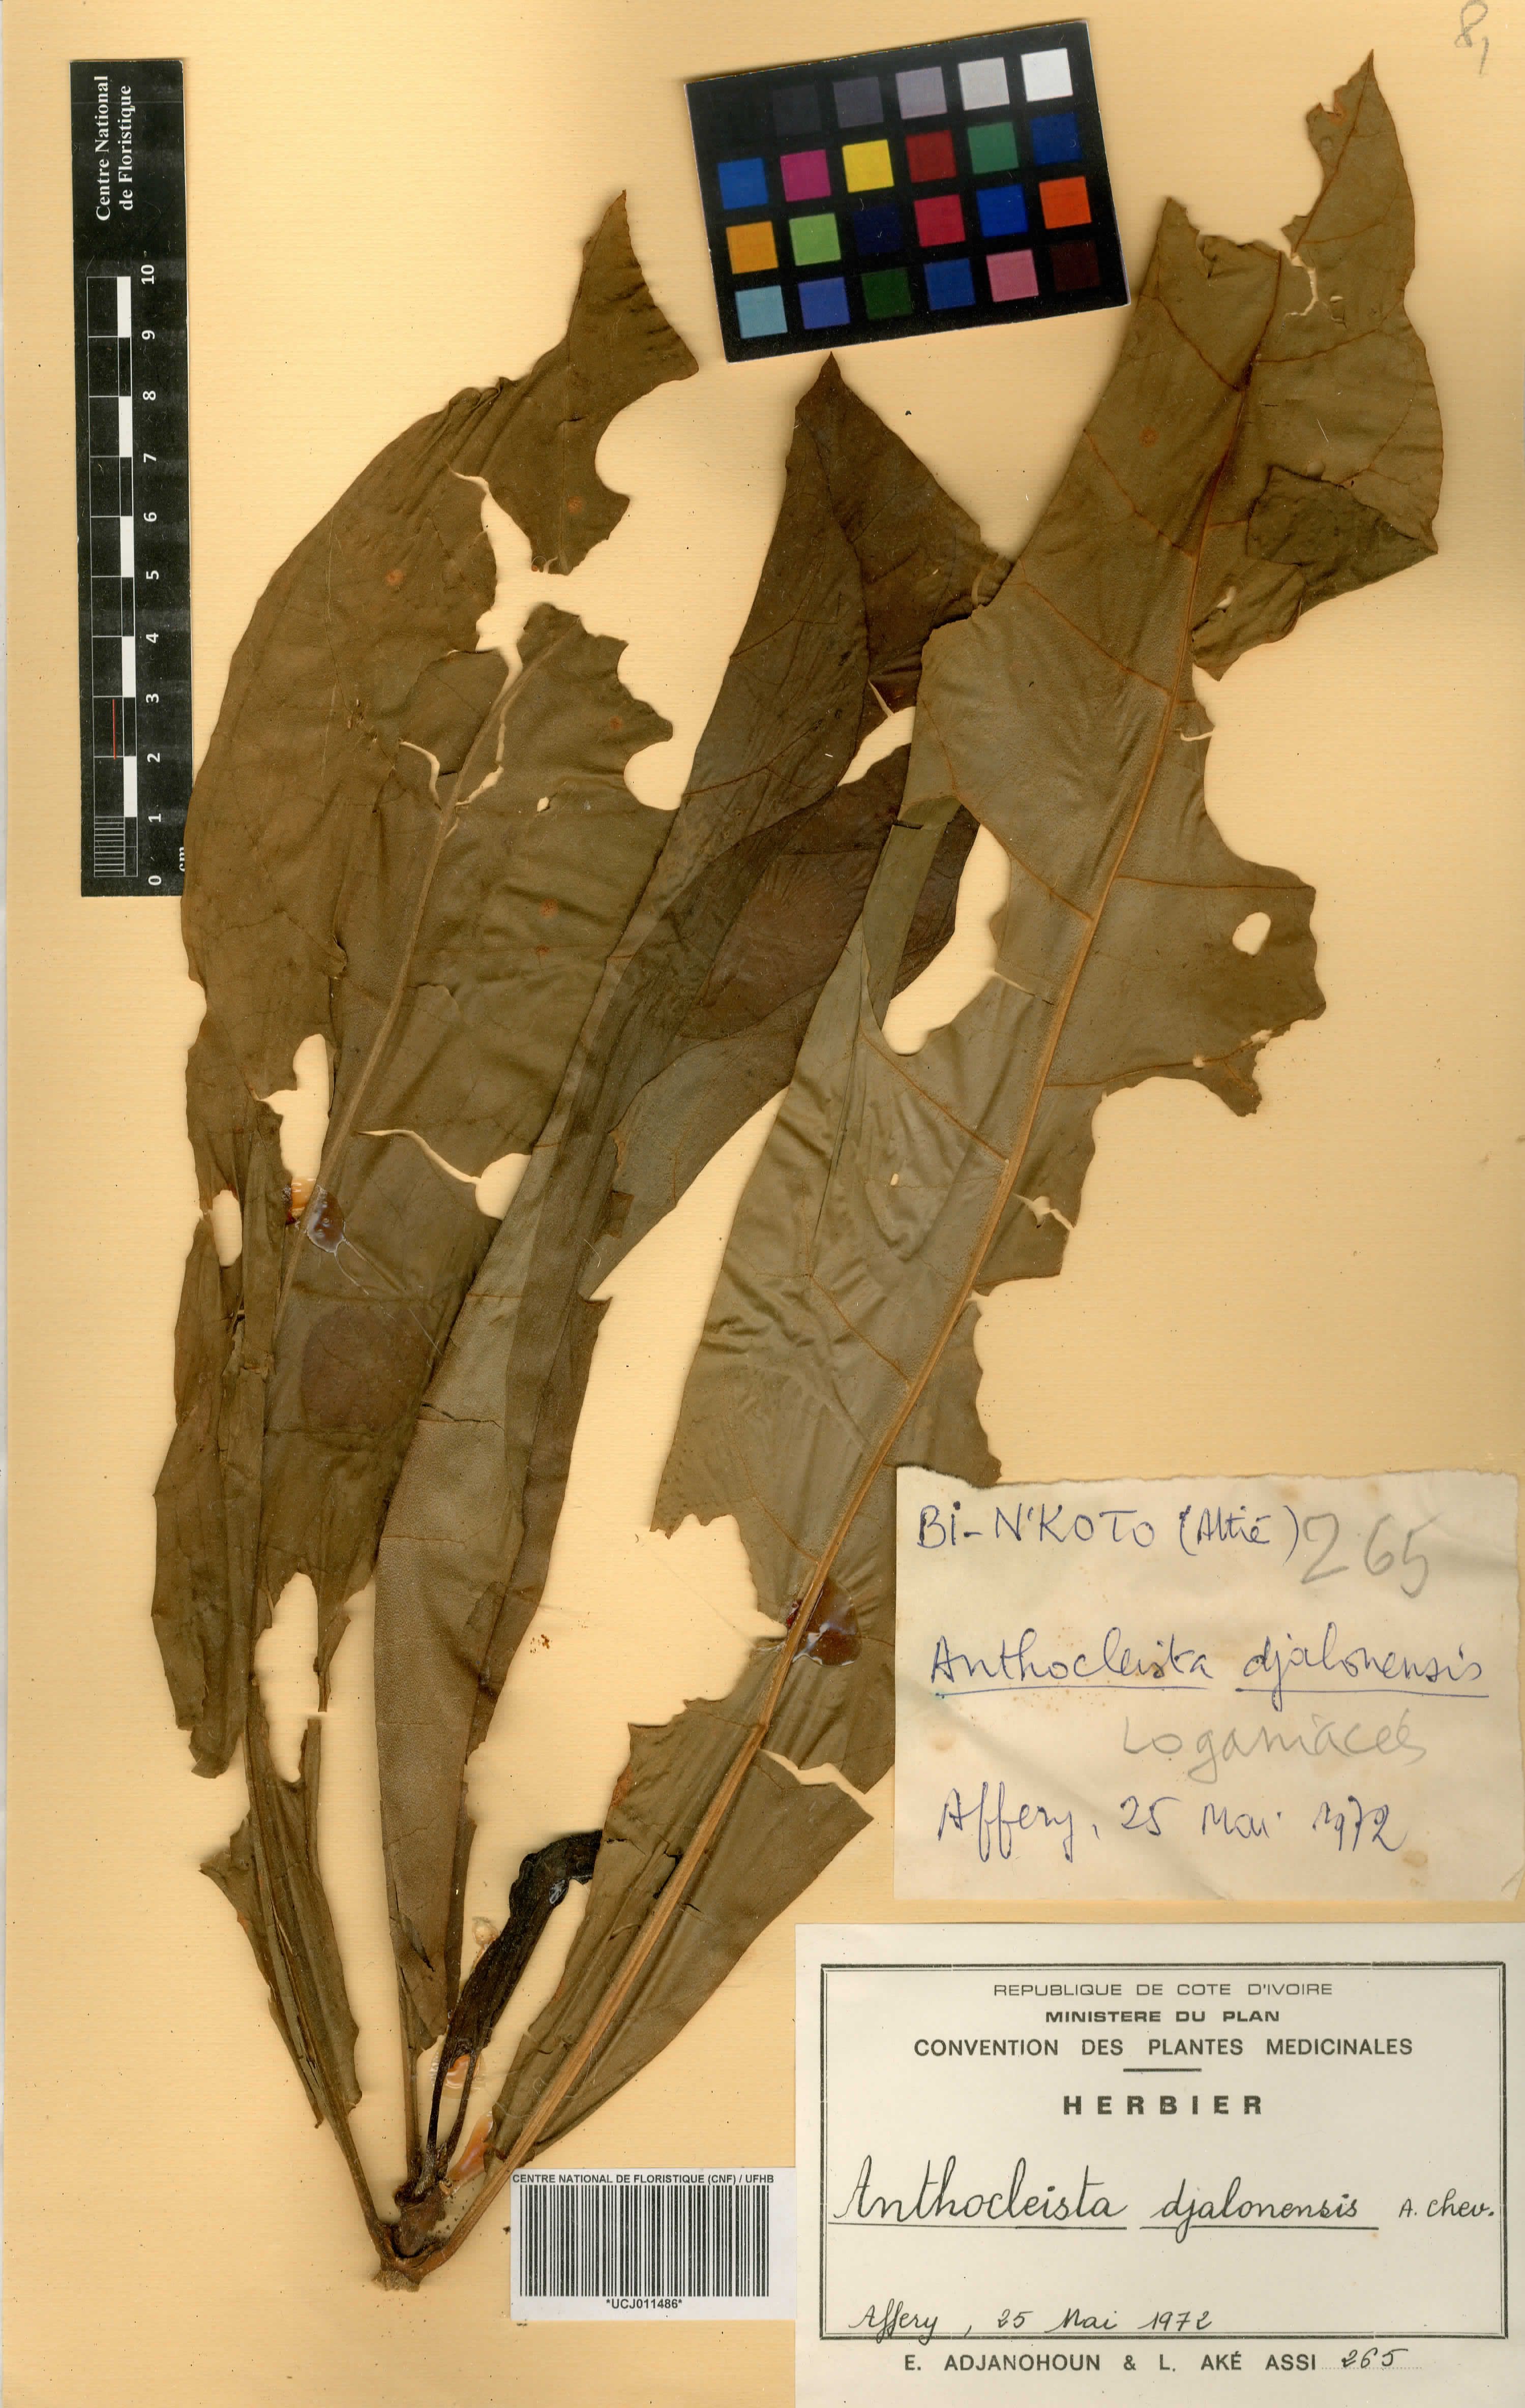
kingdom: Plantae
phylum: Tracheophyta
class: Magnoliopsida
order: Gentianales
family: Gentianaceae
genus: Anthocleista
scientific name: Anthocleista djalonensis
